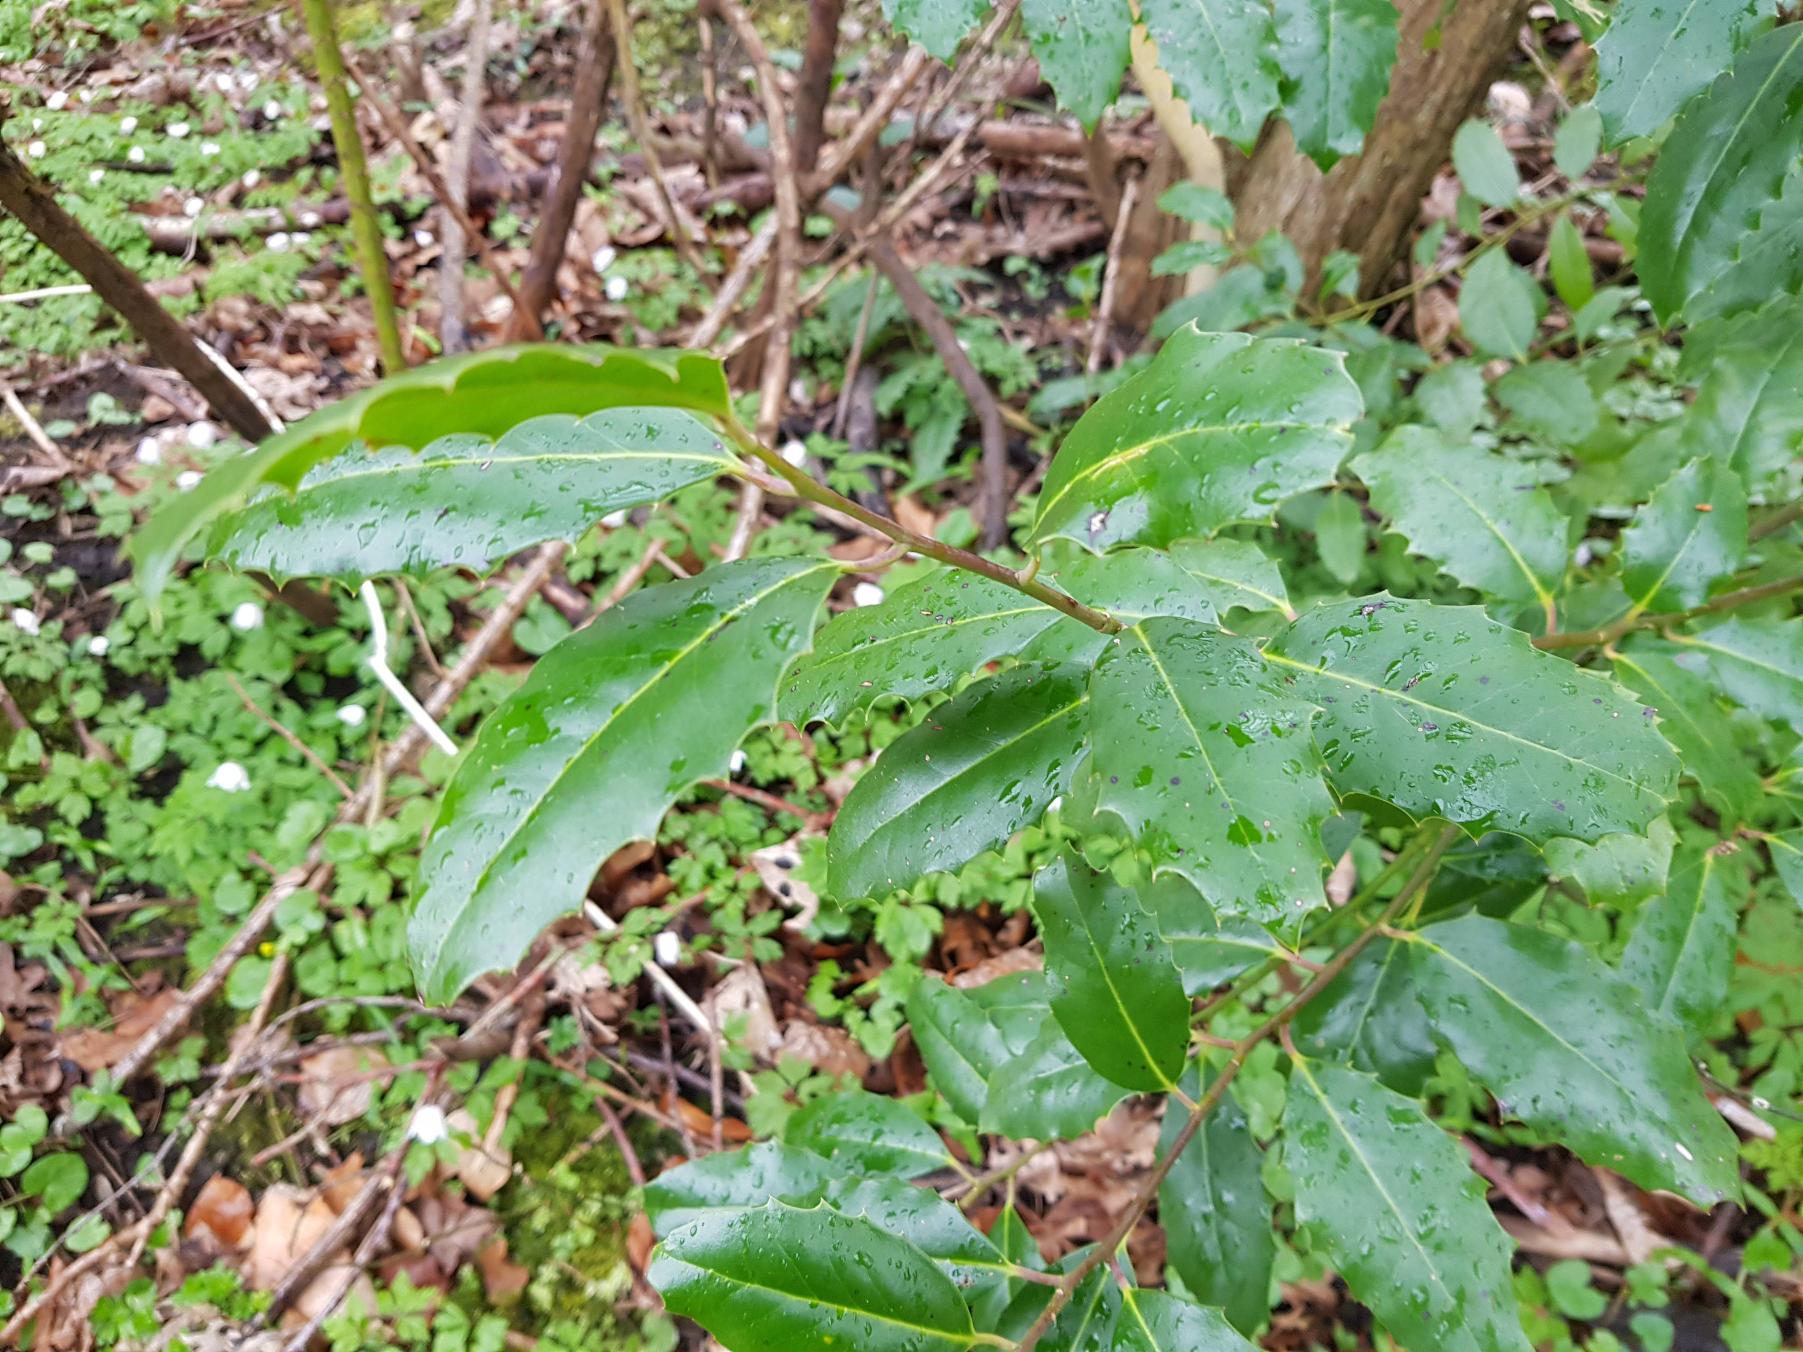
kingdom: Plantae
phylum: Tracheophyta
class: Magnoliopsida
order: Aquifoliales
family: Aquifoliaceae
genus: Ilex
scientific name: Ilex altaclerensis
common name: Storbladet kristtorn
